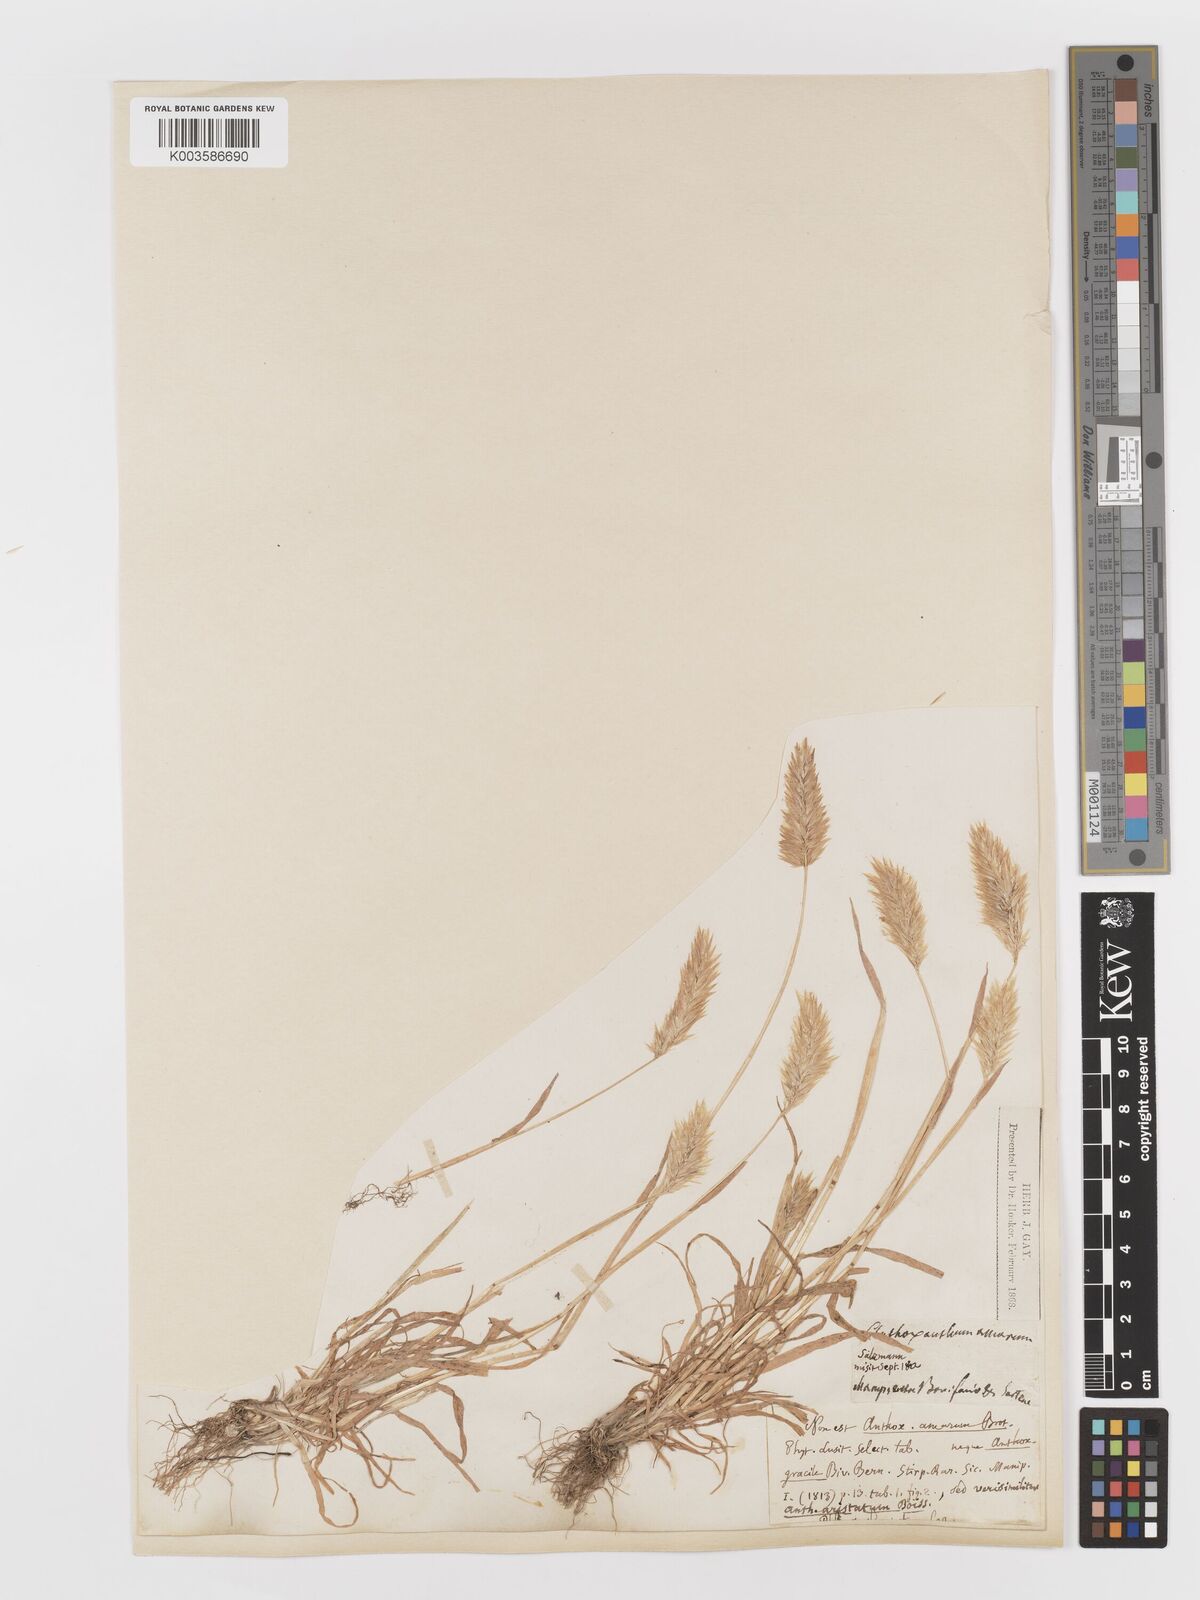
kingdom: Plantae
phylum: Tracheophyta
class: Liliopsida
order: Poales
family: Poaceae
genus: Anthoxanthum
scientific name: Anthoxanthum odoratum
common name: Sweet vernalgrass
